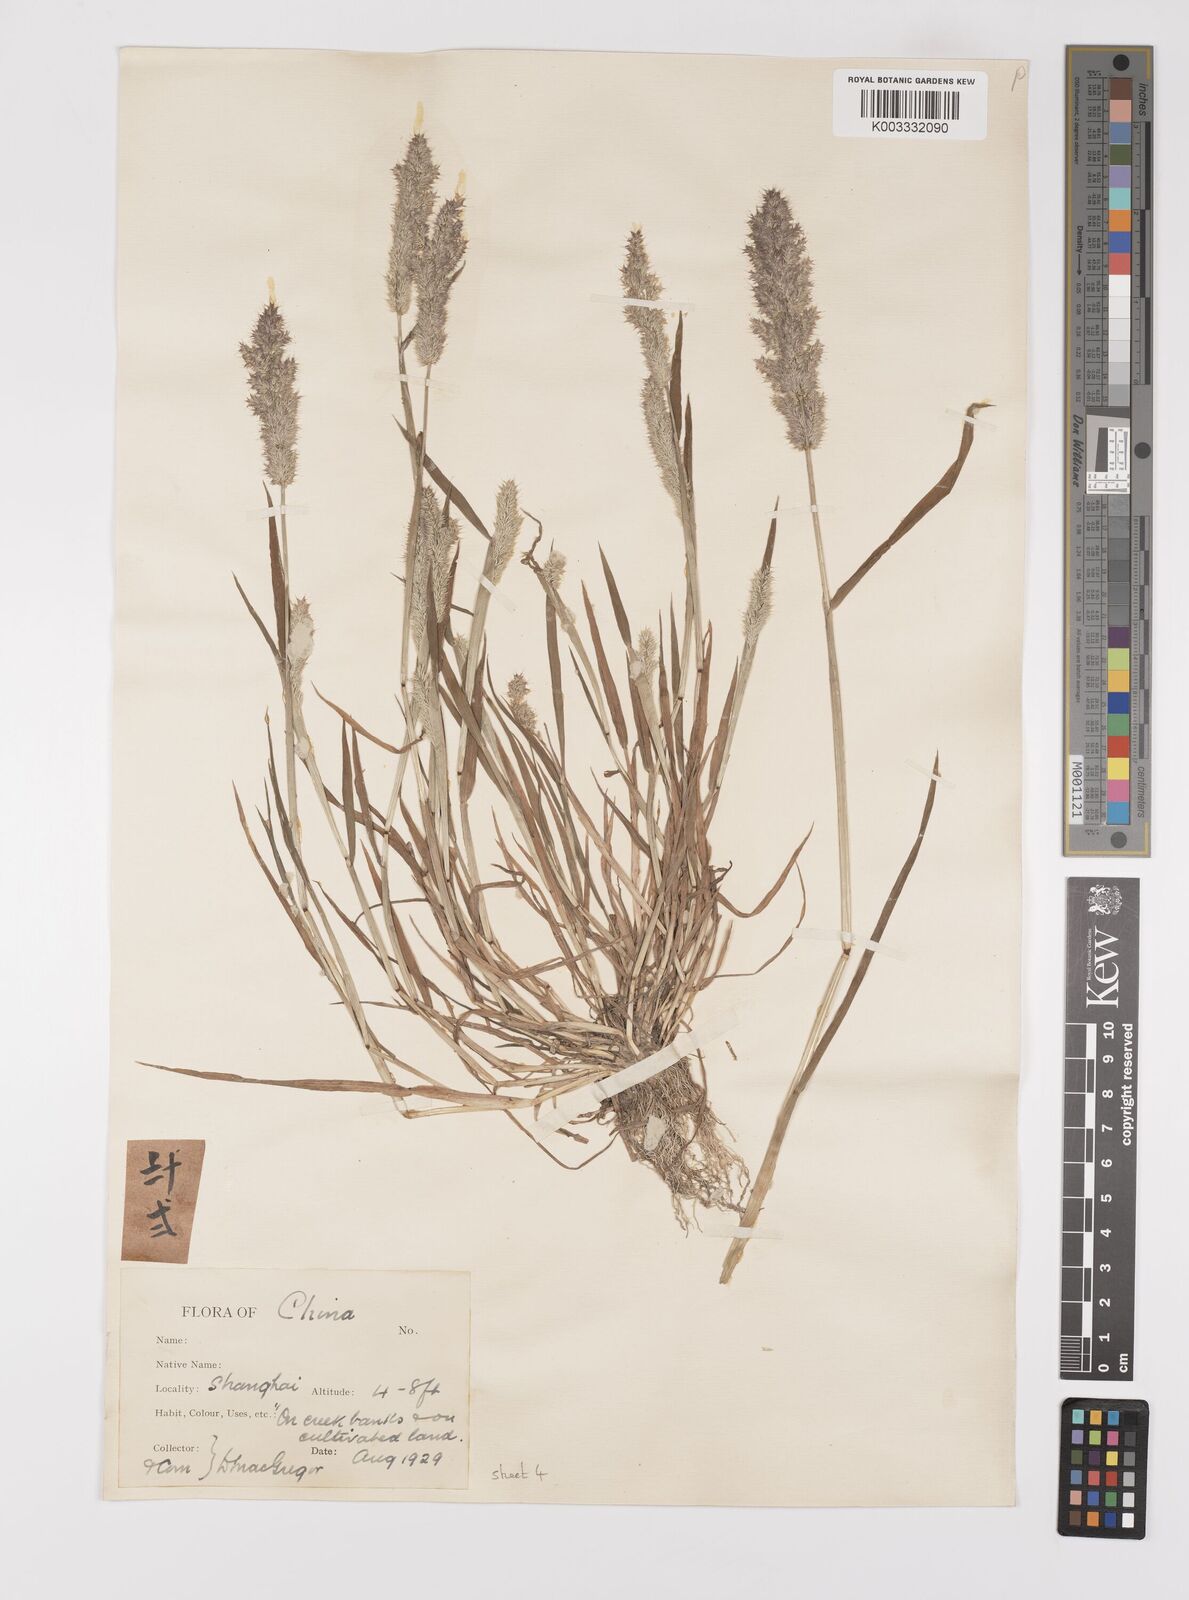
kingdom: Plantae
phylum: Tracheophyta
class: Liliopsida
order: Poales
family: Poaceae
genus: Polypogon
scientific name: Polypogon fugax
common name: Asia minor bluegrass
